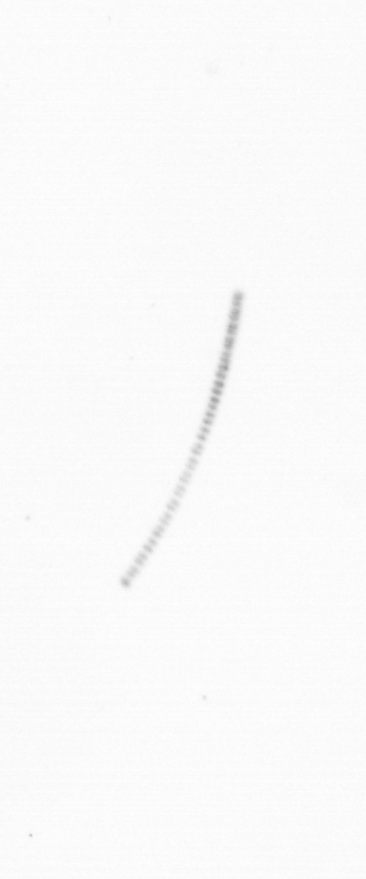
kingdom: Chromista
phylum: Ochrophyta
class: Bacillariophyceae
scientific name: Bacillariophyceae
